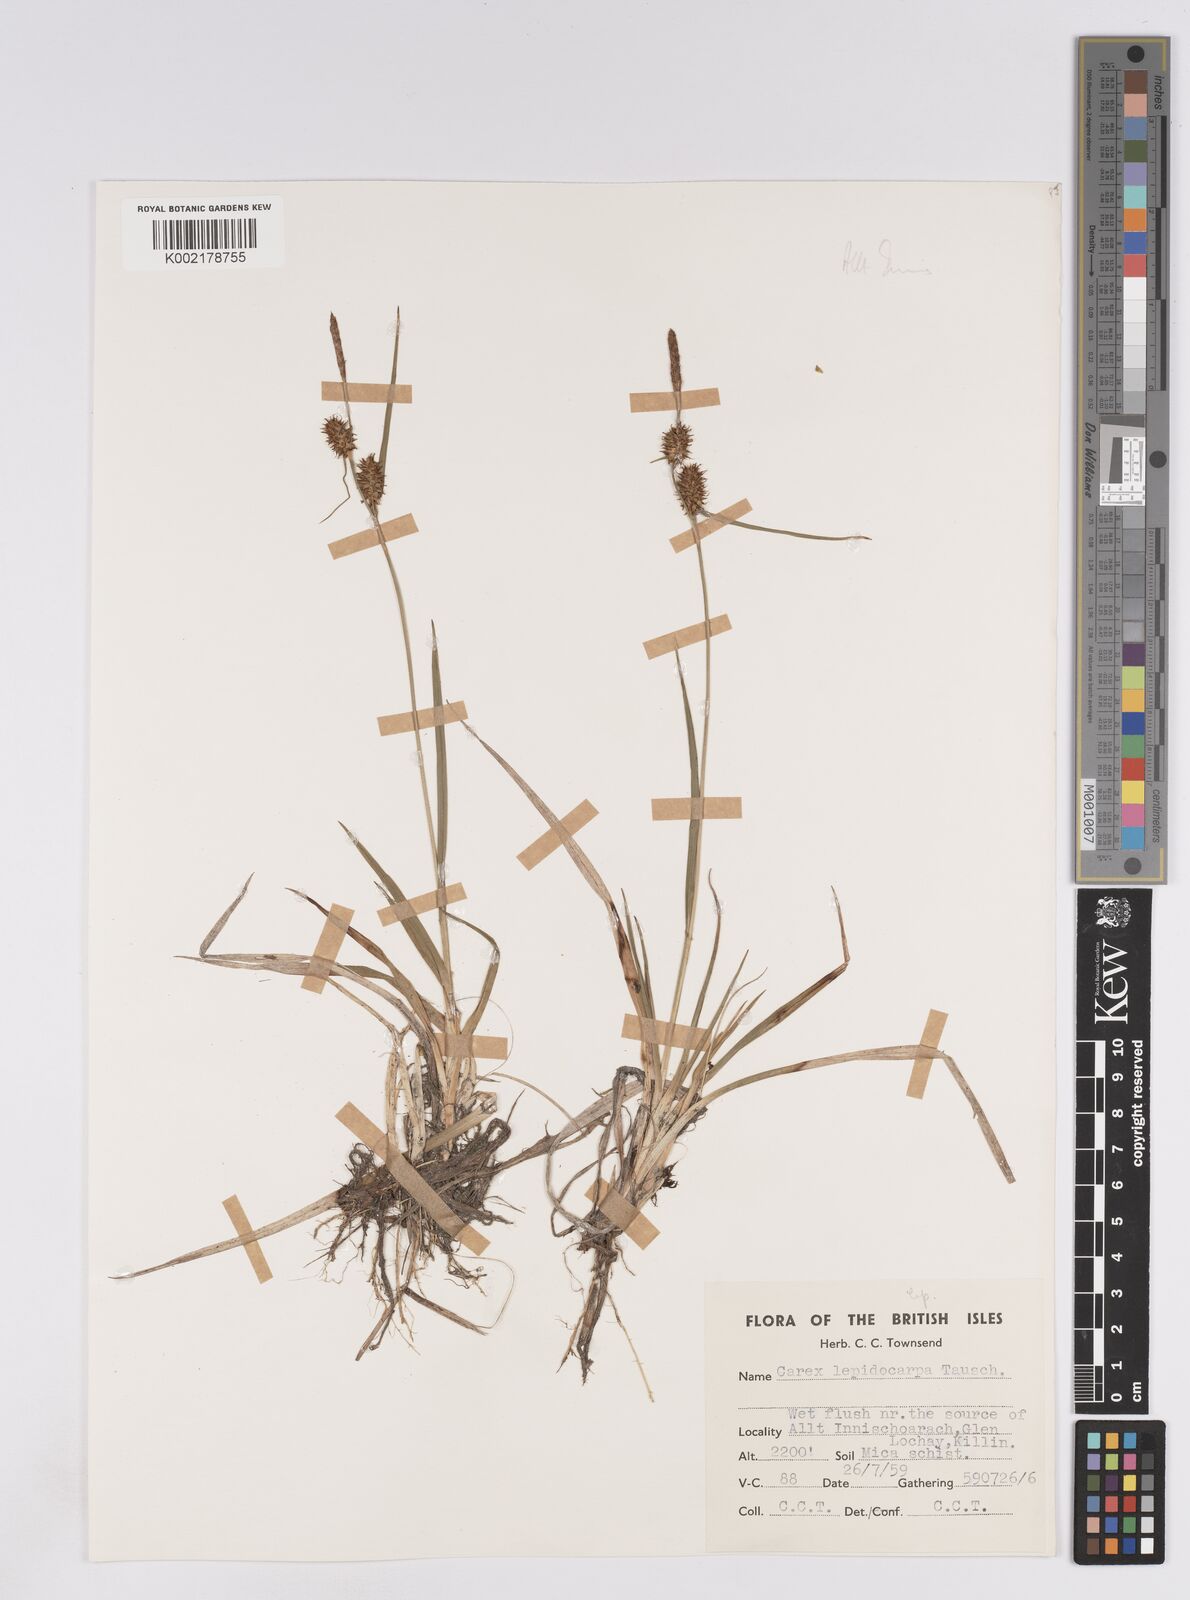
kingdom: Plantae
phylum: Tracheophyta
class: Liliopsida
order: Poales
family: Cyperaceae
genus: Carex
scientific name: Carex lepidocarpa
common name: Long-stalked yellow-sedge
